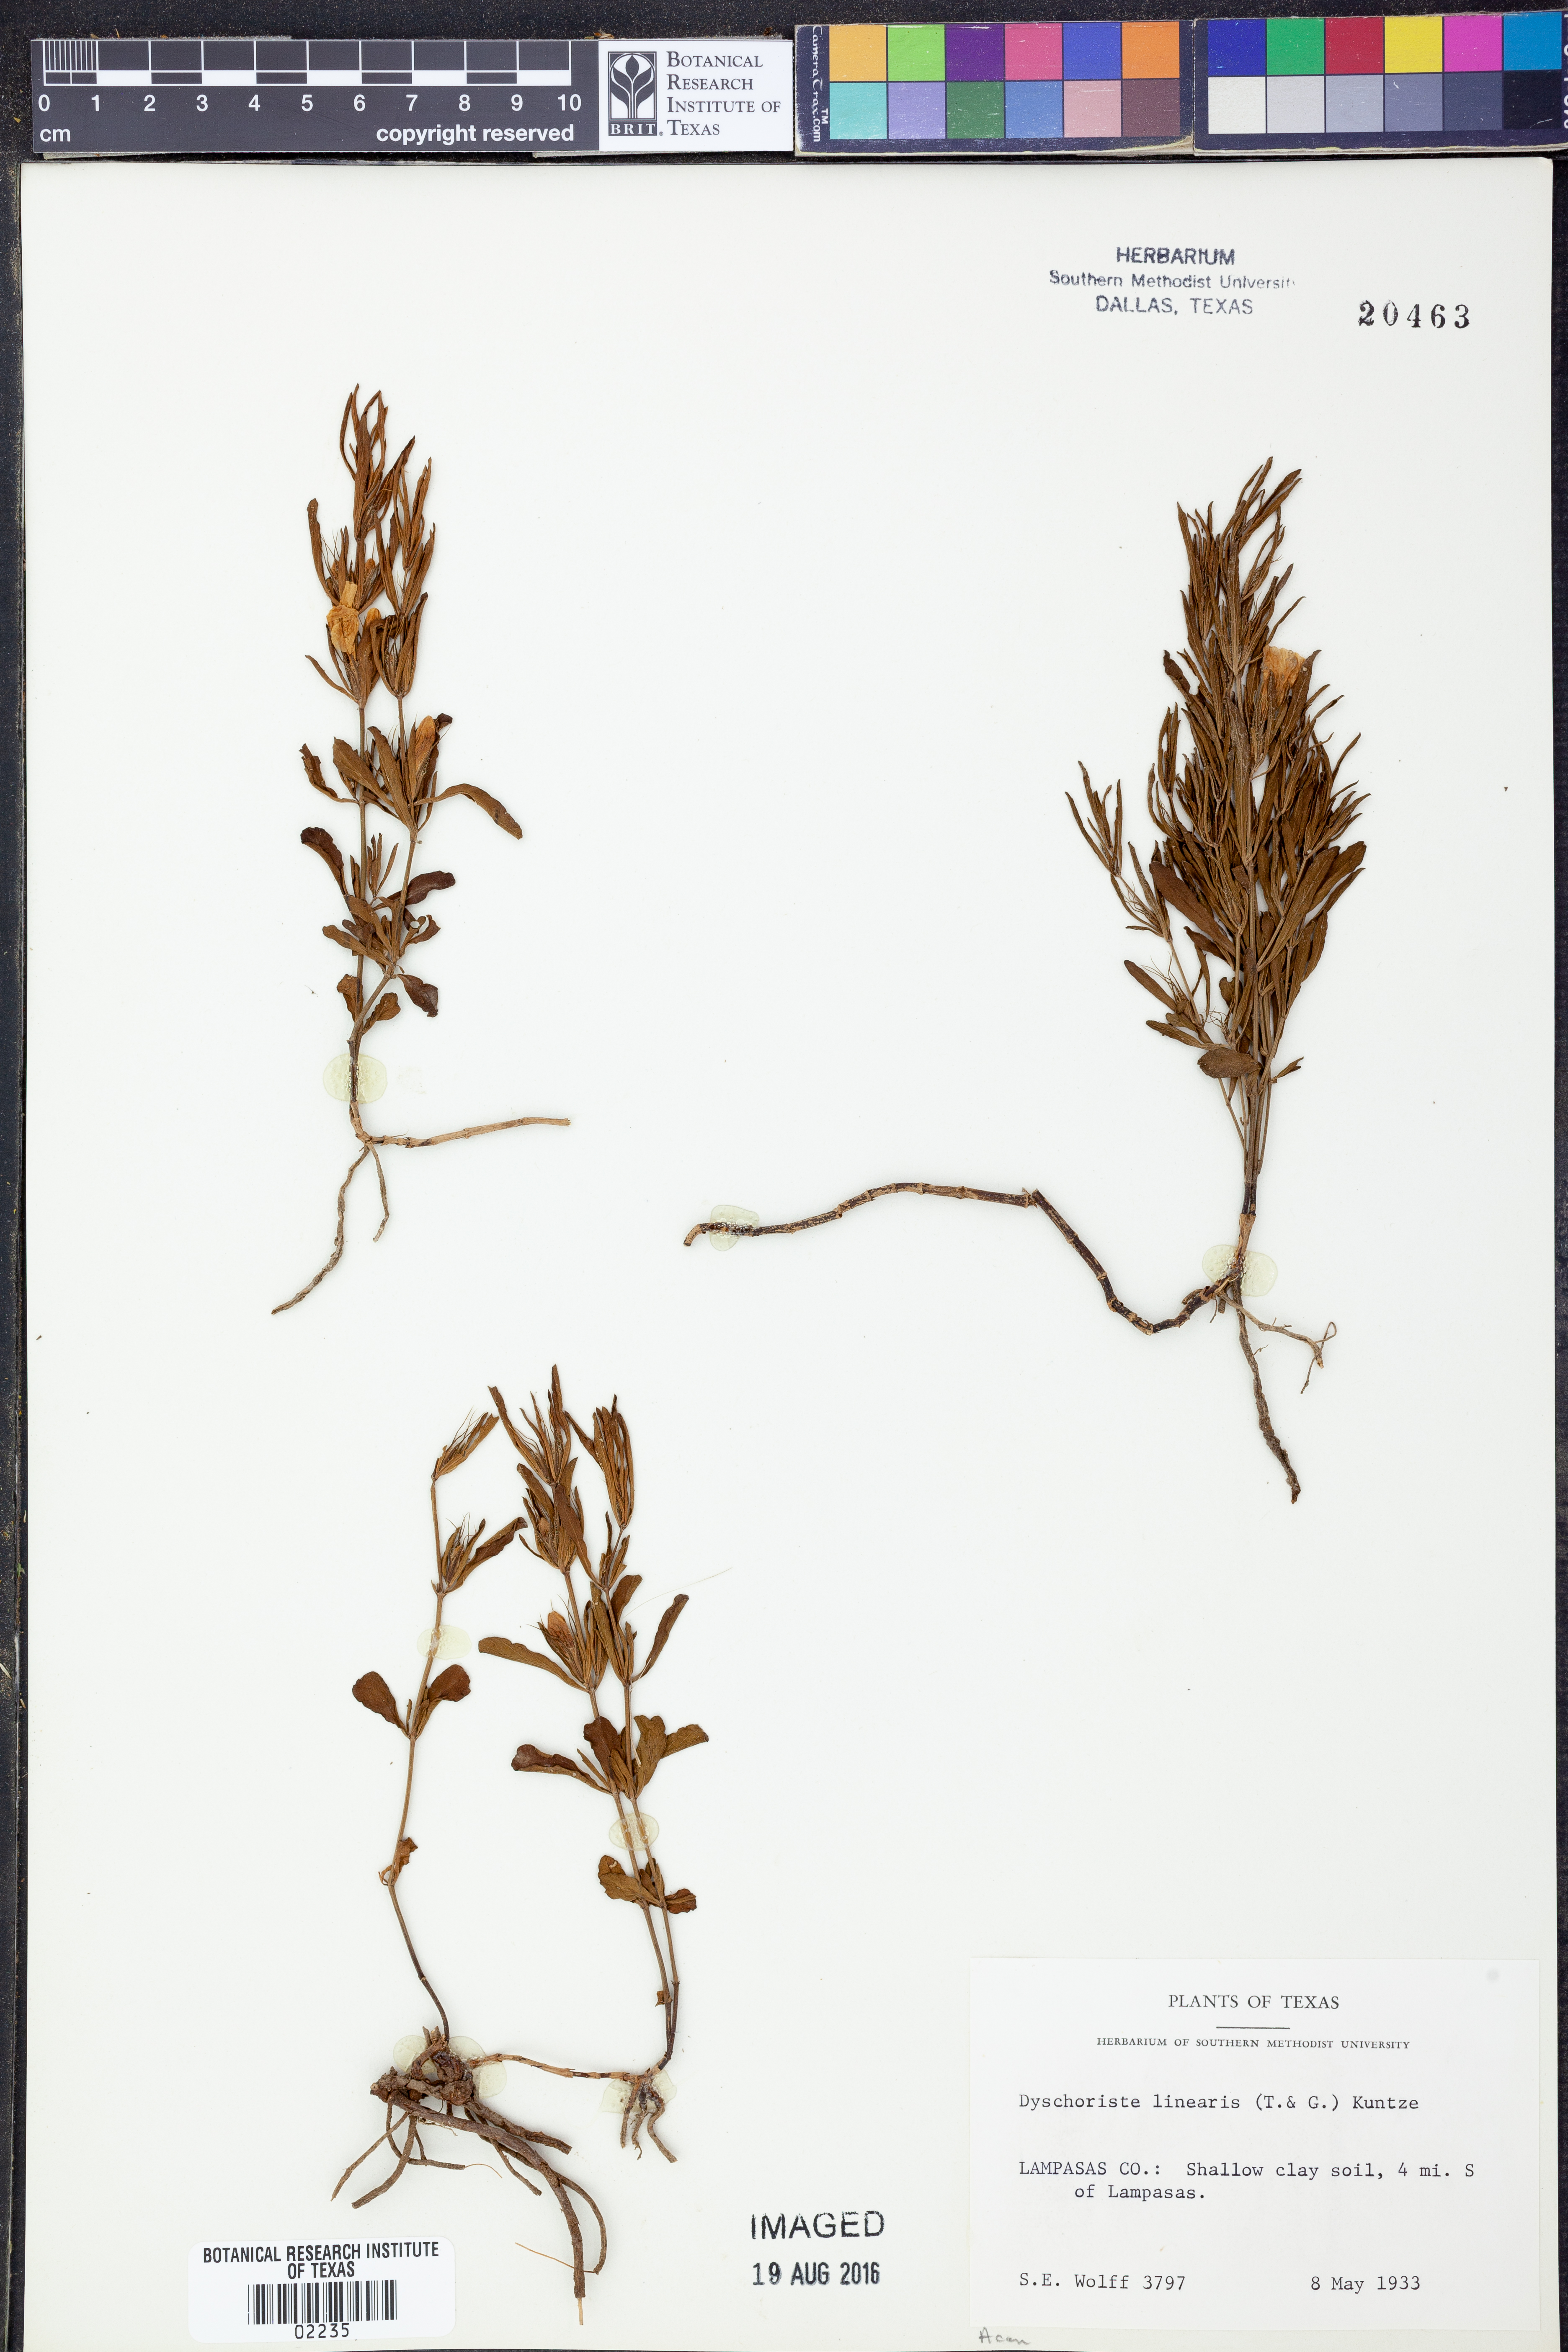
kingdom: Plantae
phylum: Tracheophyta
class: Magnoliopsida
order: Lamiales
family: Acanthaceae
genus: Dyschoriste
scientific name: Dyschoriste linearis
